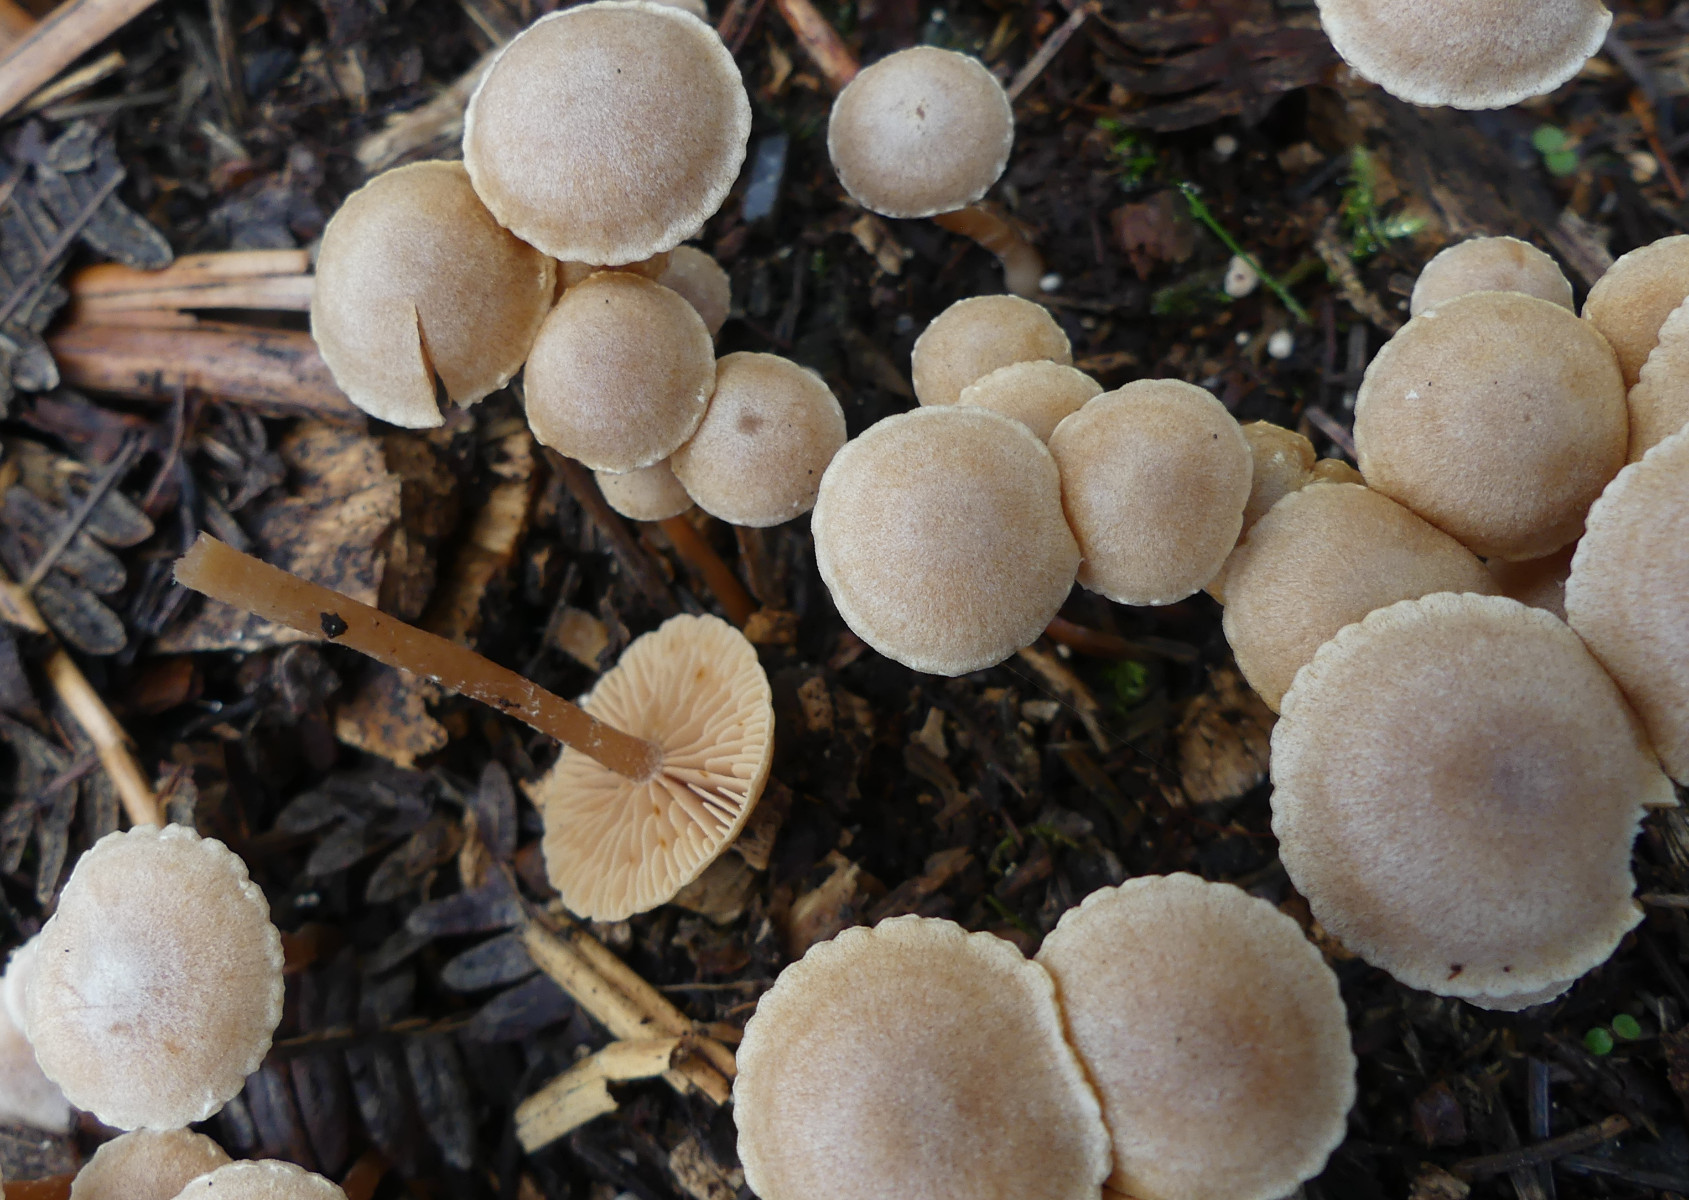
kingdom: Fungi
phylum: Basidiomycota
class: Agaricomycetes
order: Agaricales
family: Tubariaceae
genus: Tubaria
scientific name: Tubaria conspersa
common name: bleg fnughat
